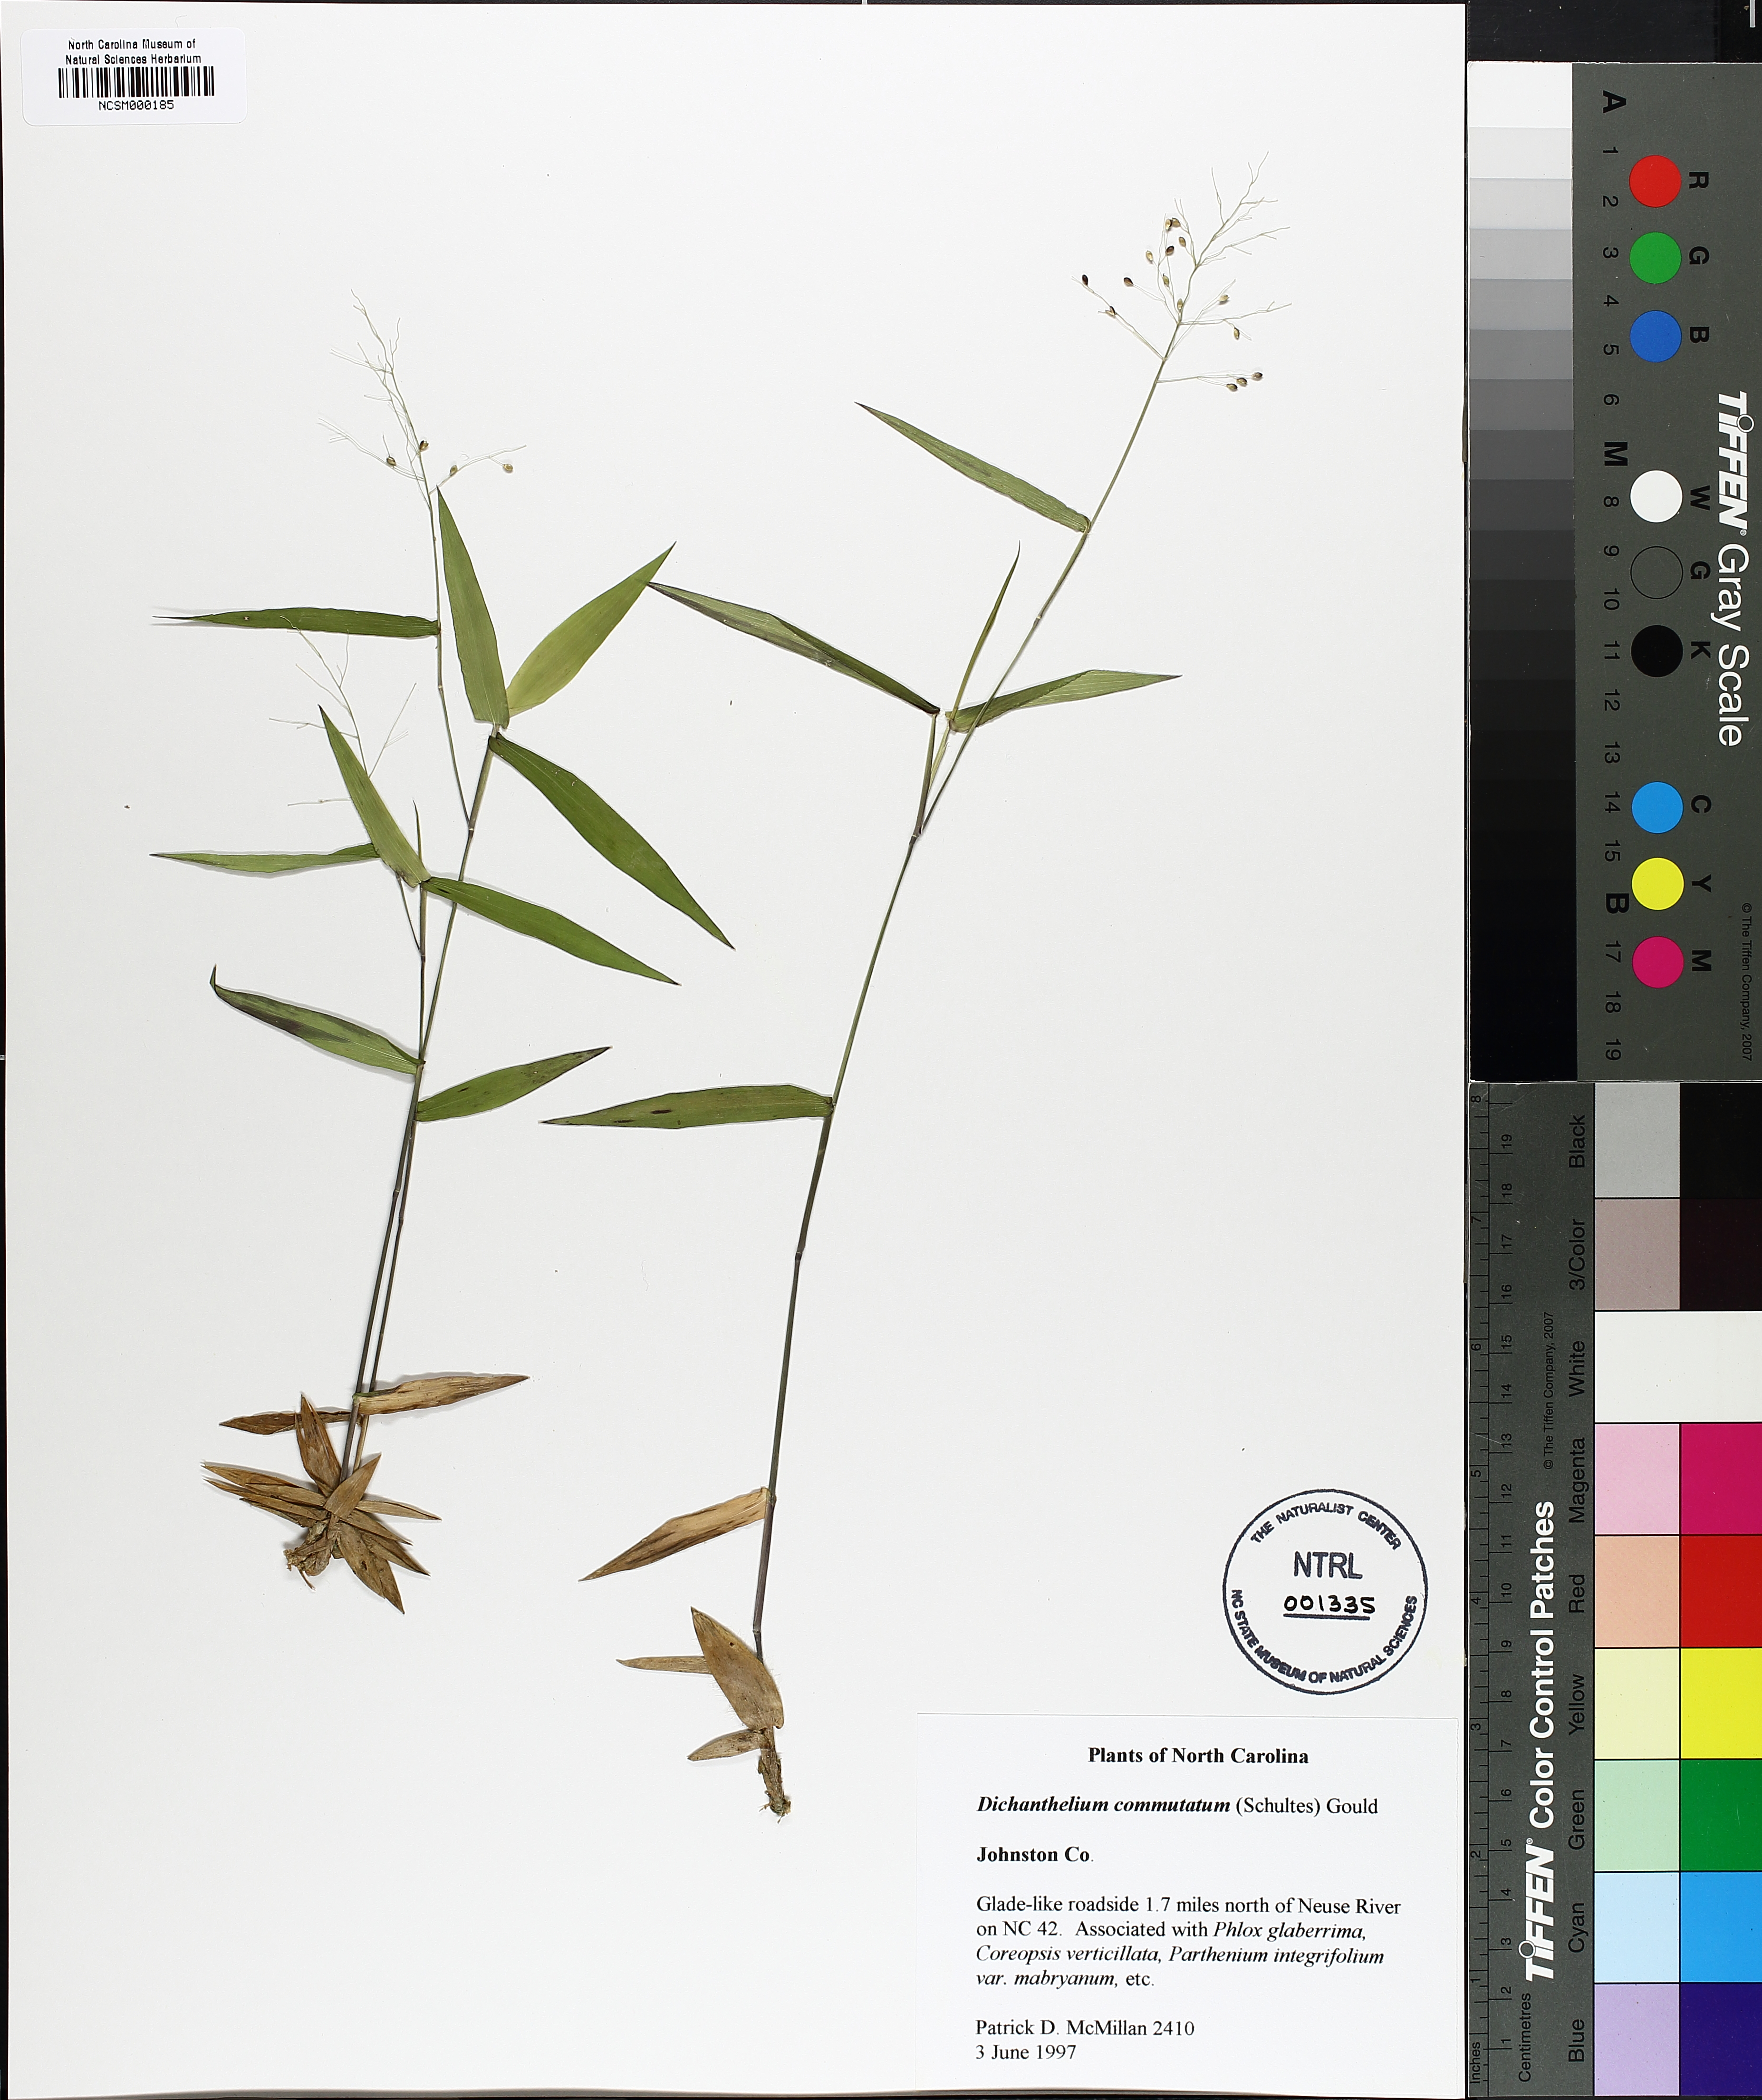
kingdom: Plantae
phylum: Tracheophyta
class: Liliopsida
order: Poales
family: Poaceae
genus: Dichanthelium
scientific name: Dichanthelium commutatum
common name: Variable witchgrass
